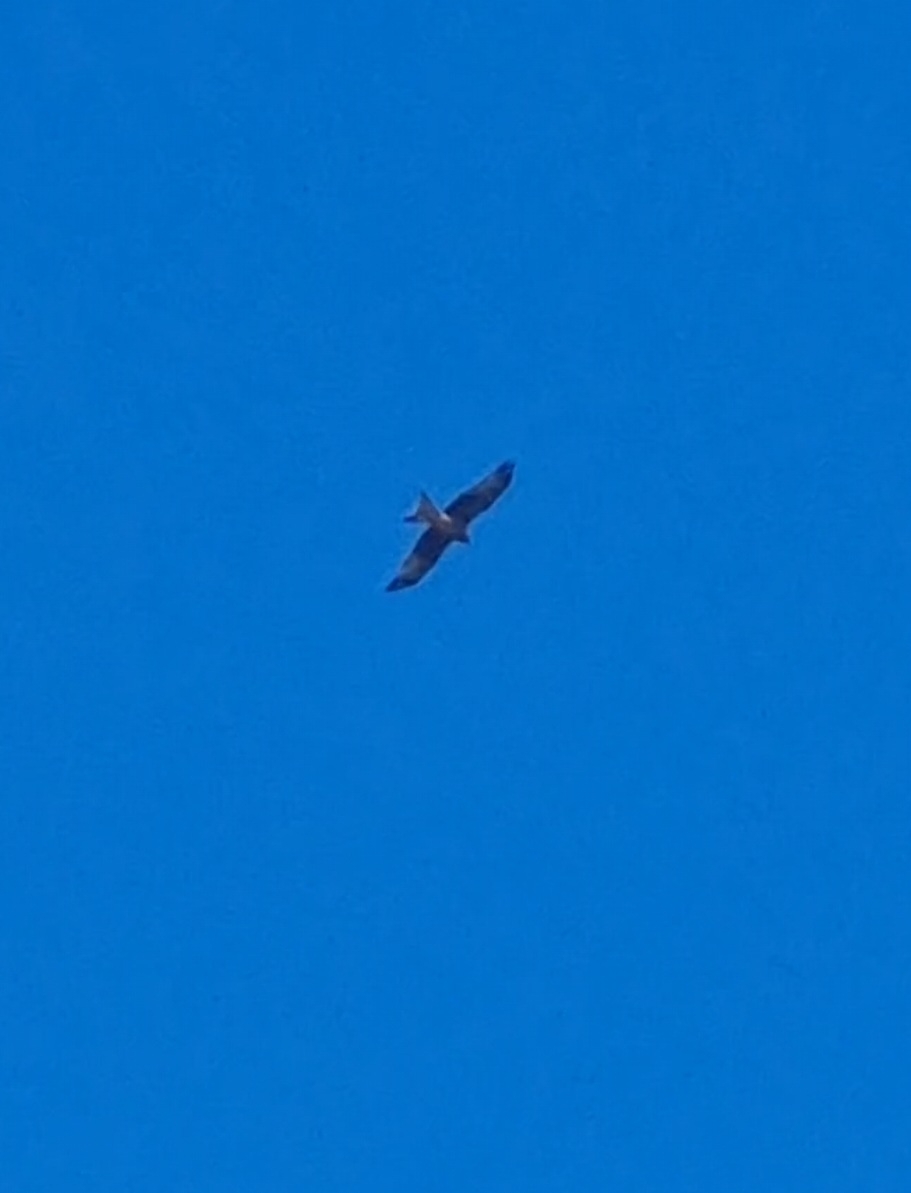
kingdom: Animalia
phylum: Chordata
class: Aves
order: Accipitriformes
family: Accipitridae
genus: Milvus
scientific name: Milvus milvus
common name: Rød glente
